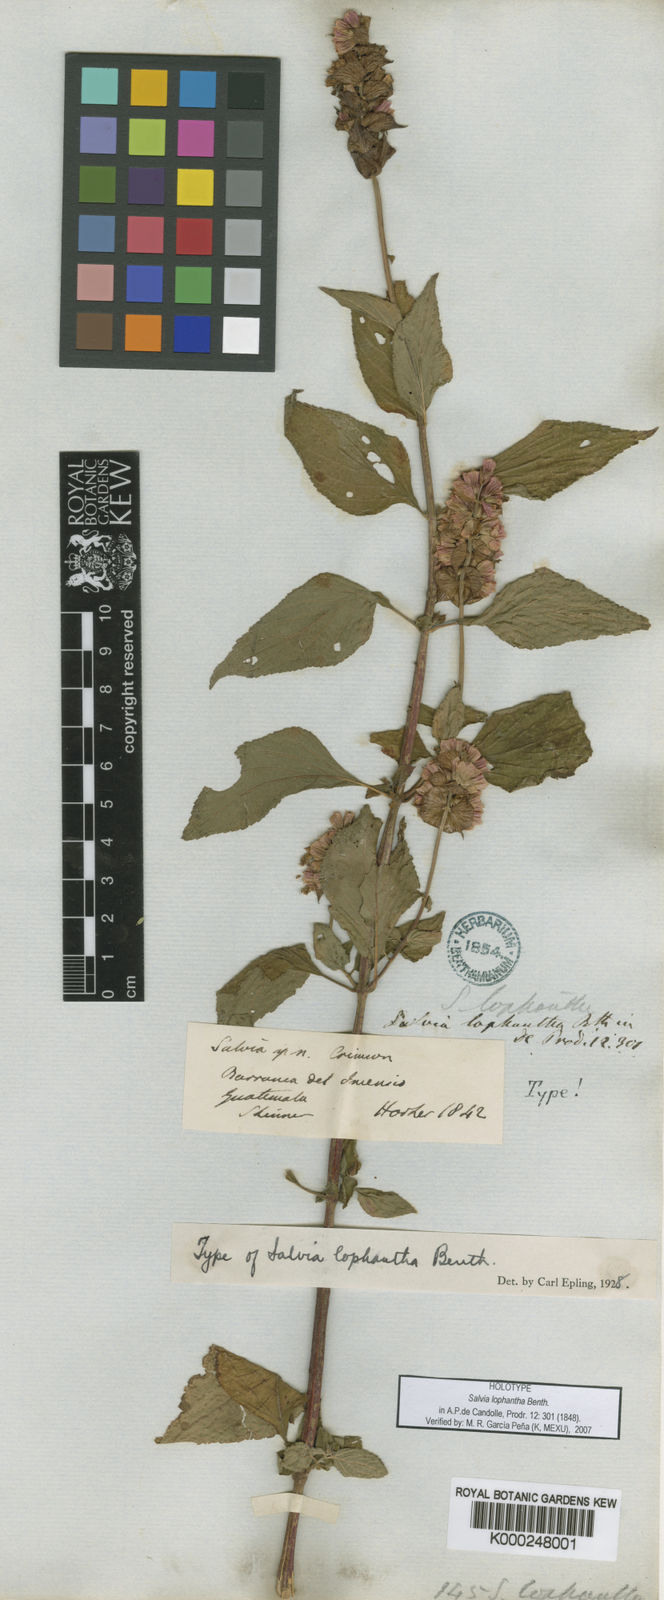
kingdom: Plantae
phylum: Tracheophyta
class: Magnoliopsida
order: Lamiales
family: Lamiaceae
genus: Salvia
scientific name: Salvia mocinoi
